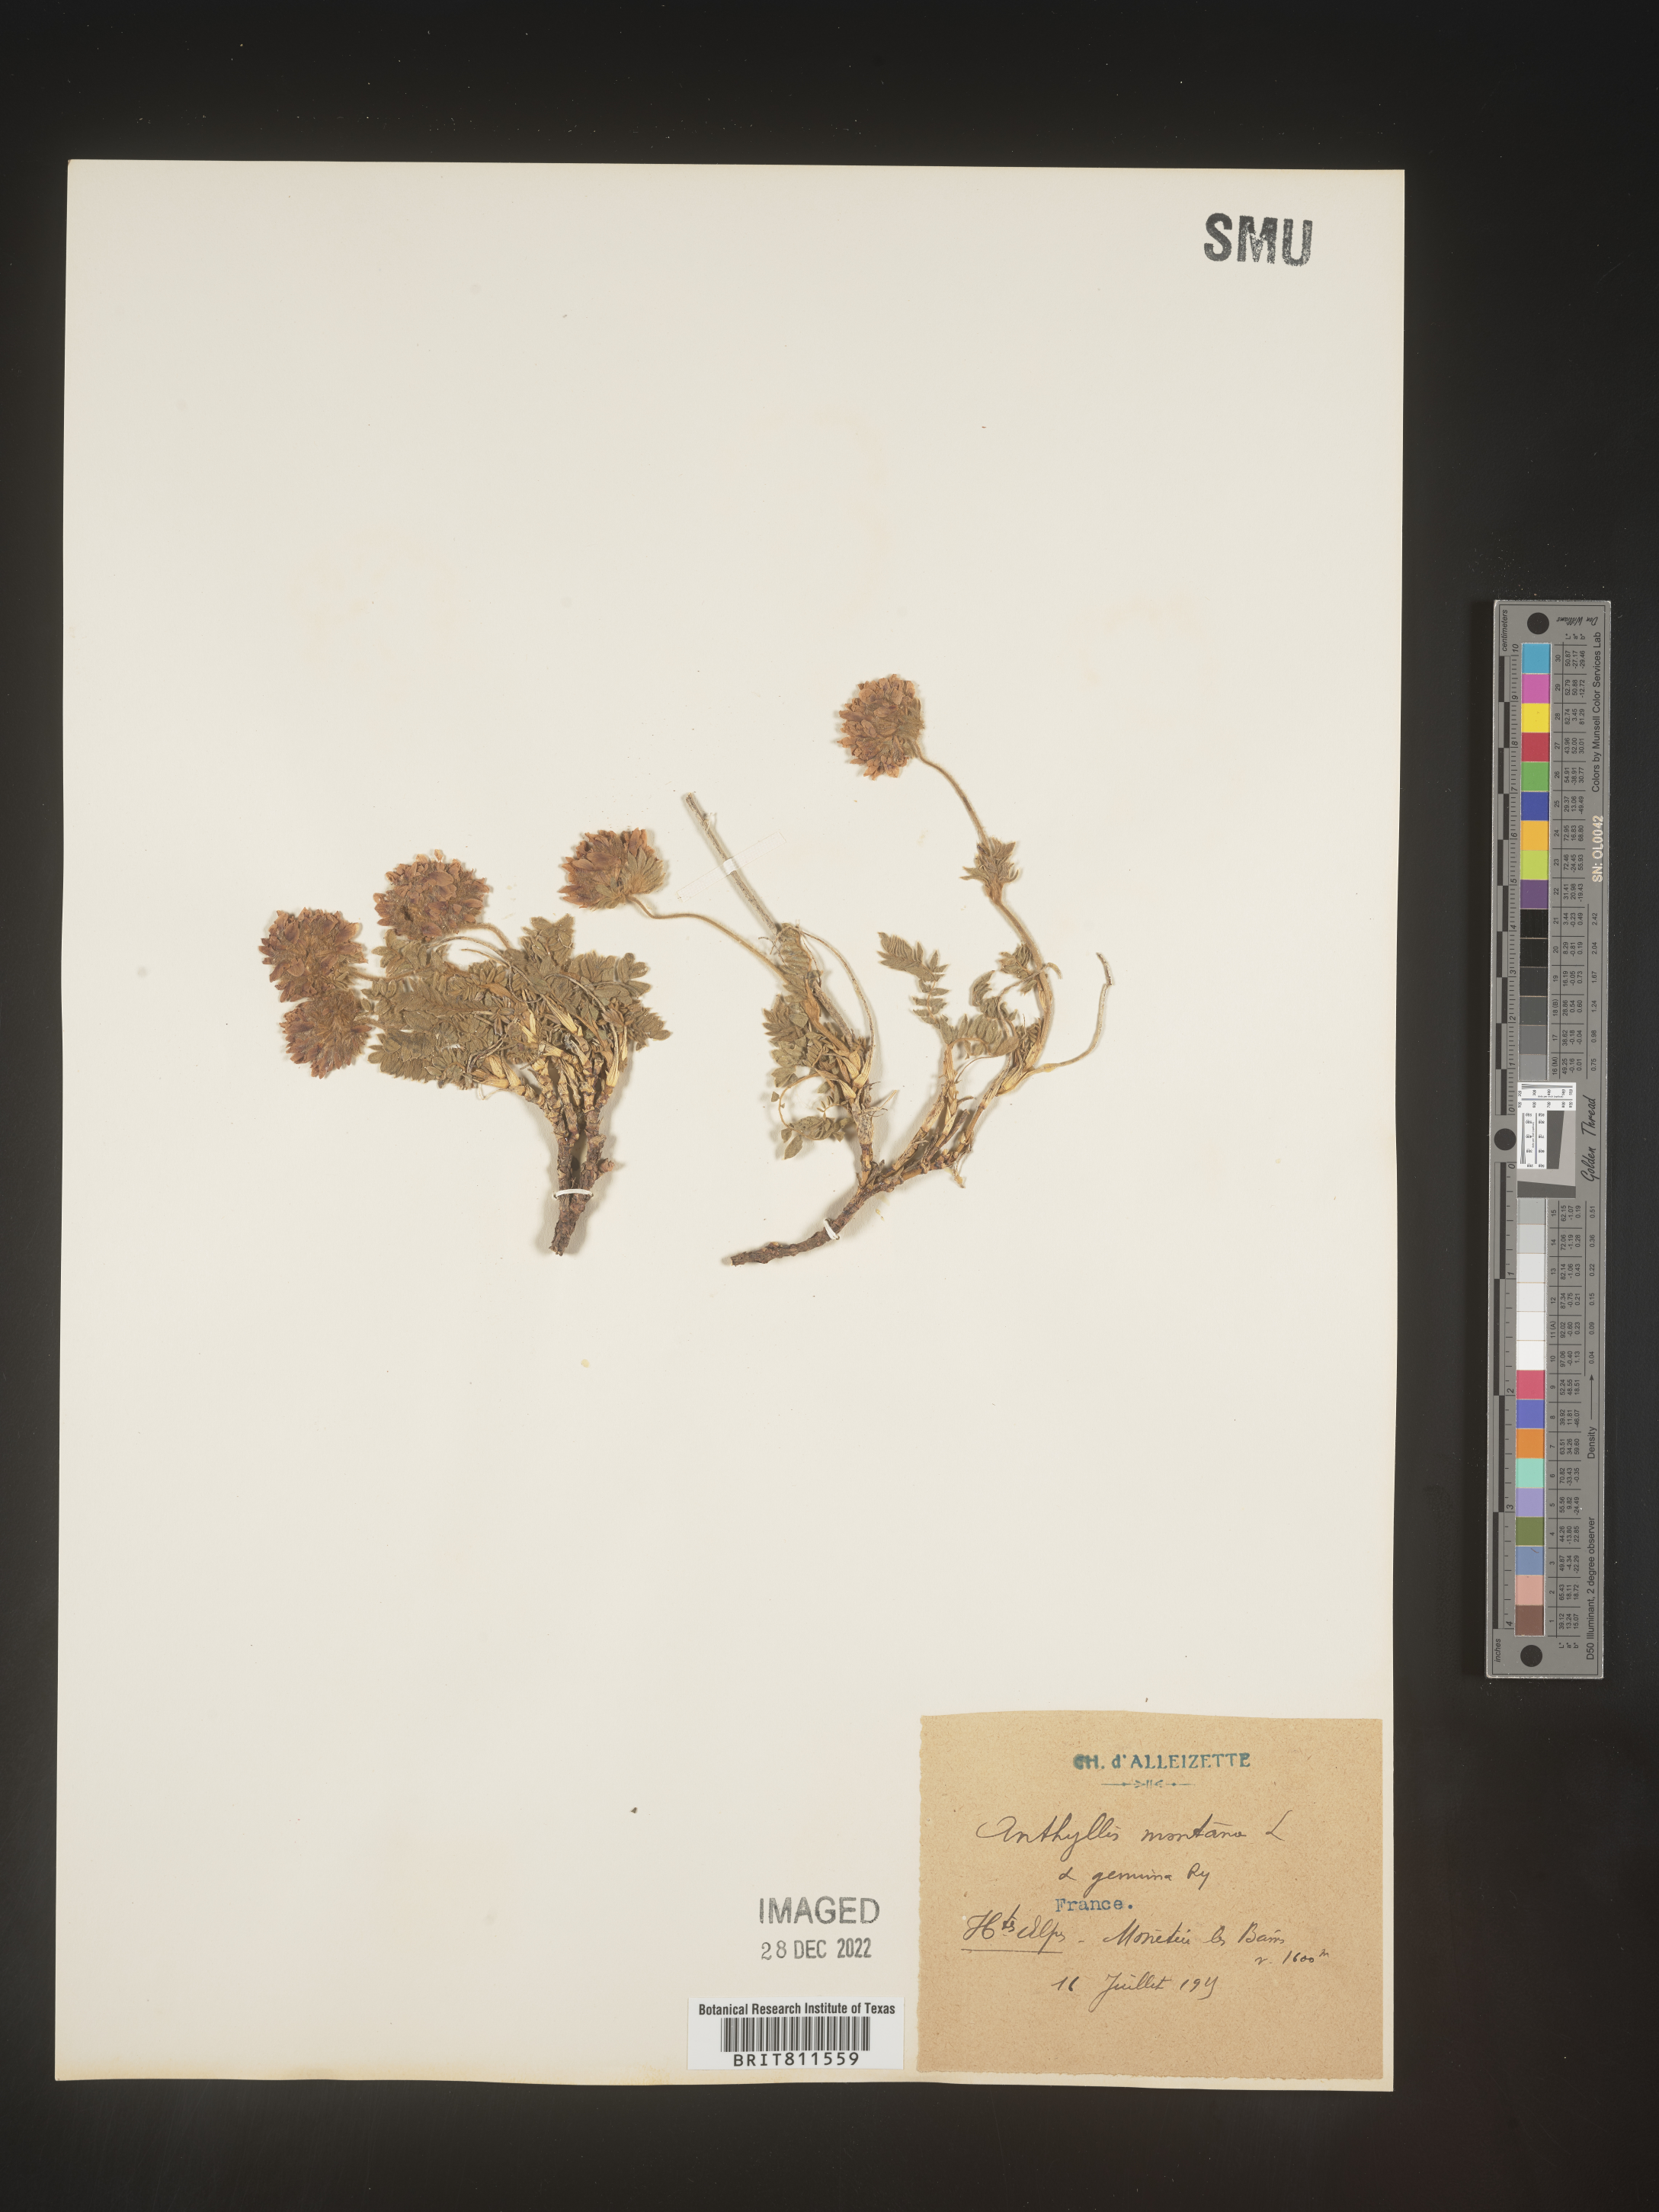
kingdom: Plantae
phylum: Tracheophyta
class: Magnoliopsida
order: Fabales
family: Fabaceae
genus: Anthyllis
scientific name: Anthyllis
